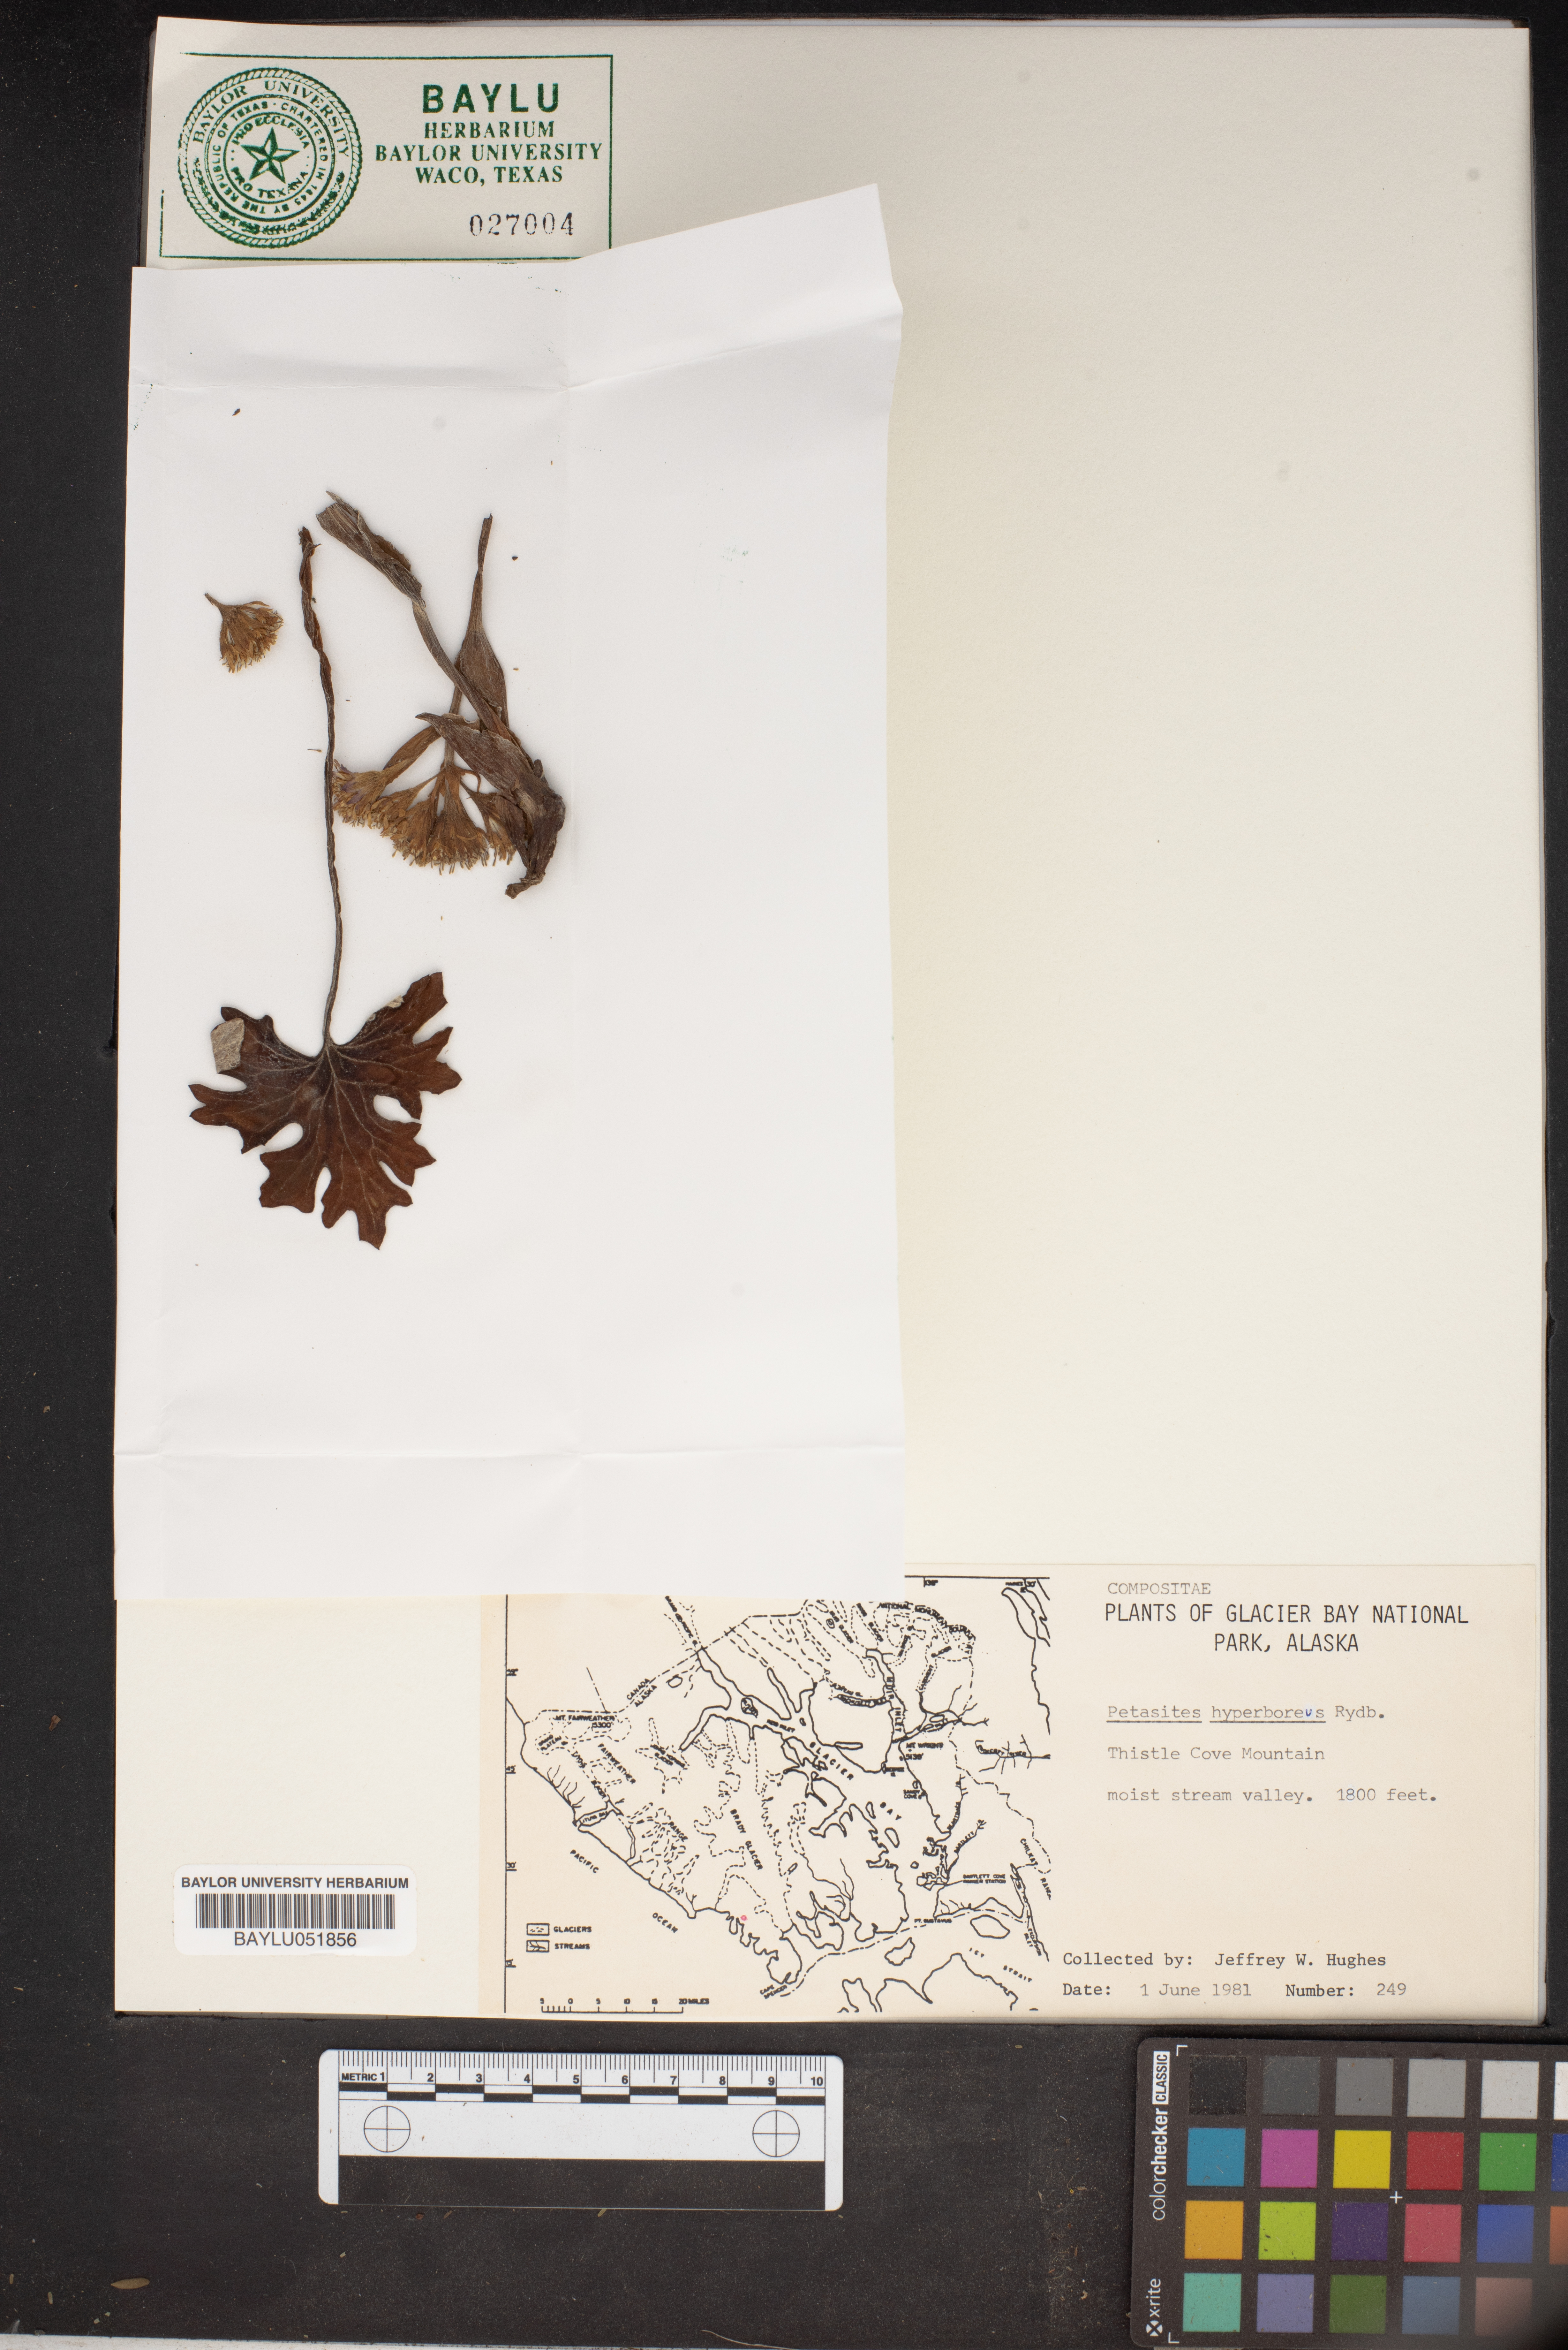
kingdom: Plantae
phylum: Tracheophyta
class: Magnoliopsida
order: Asterales
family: Asteraceae
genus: Petasites
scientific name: Petasites frigidus
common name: Arctic butterbur
